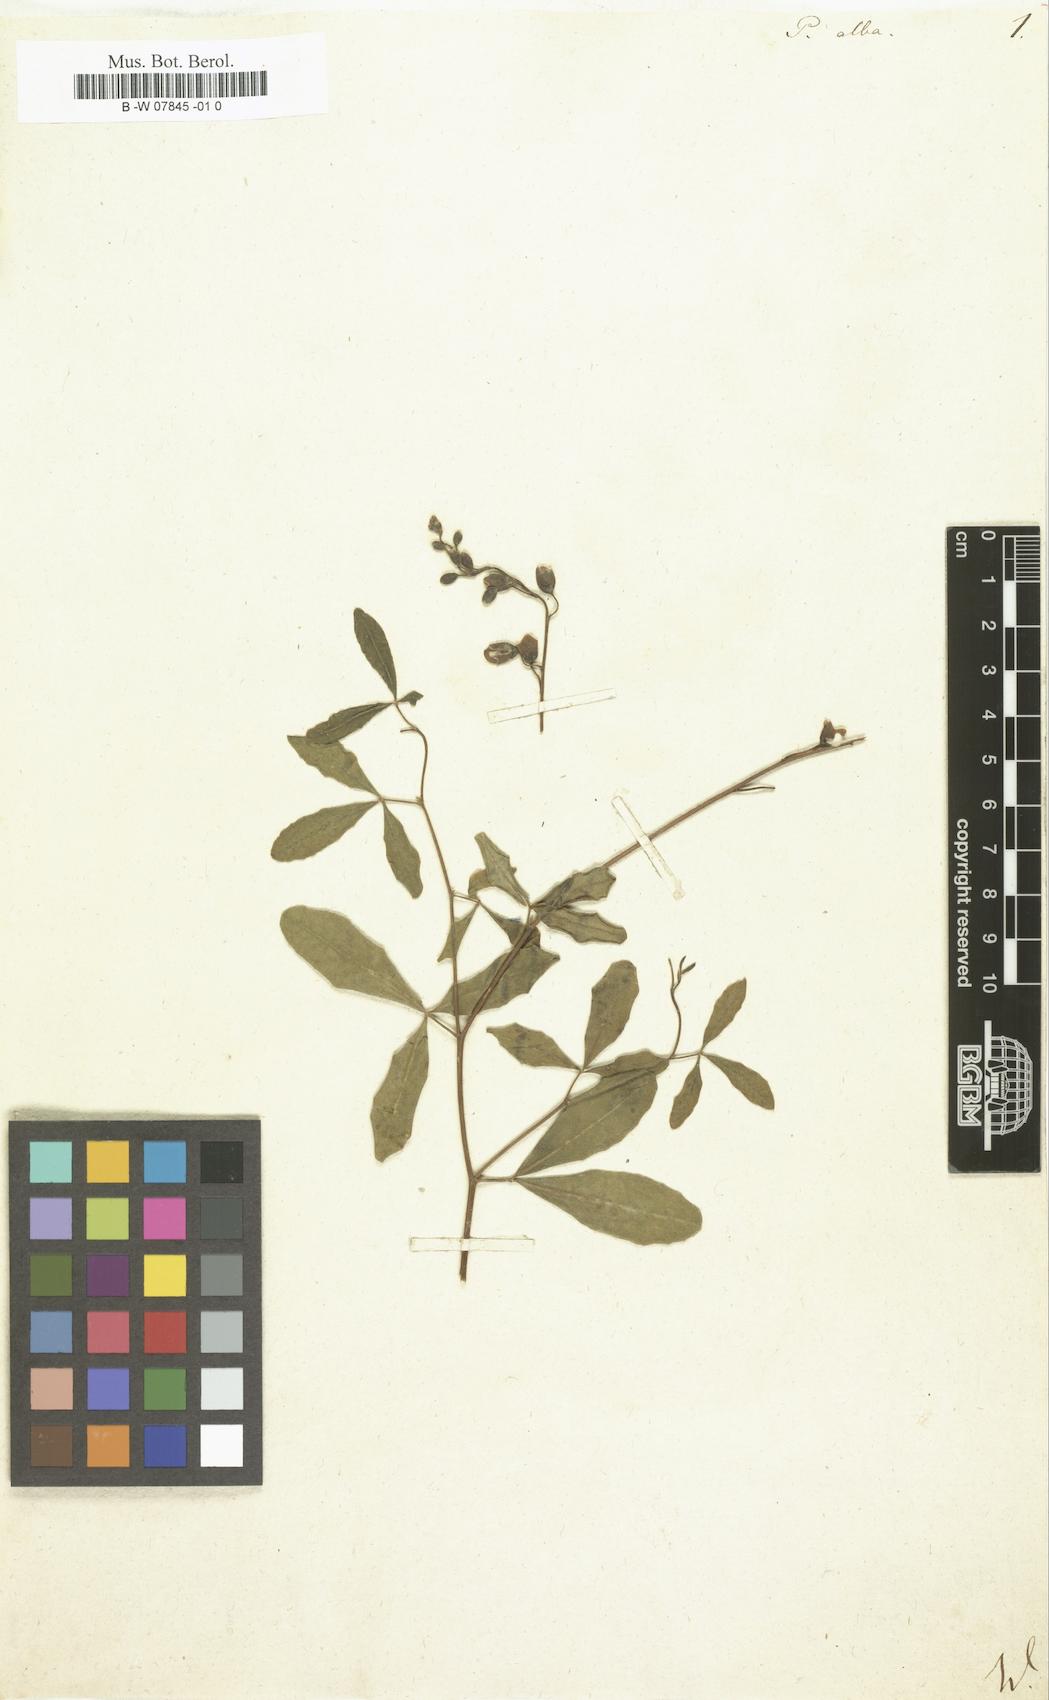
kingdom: Plantae
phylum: Tracheophyta
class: Magnoliopsida
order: Fabales
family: Fabaceae
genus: Baptisia
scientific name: Baptisia alba
